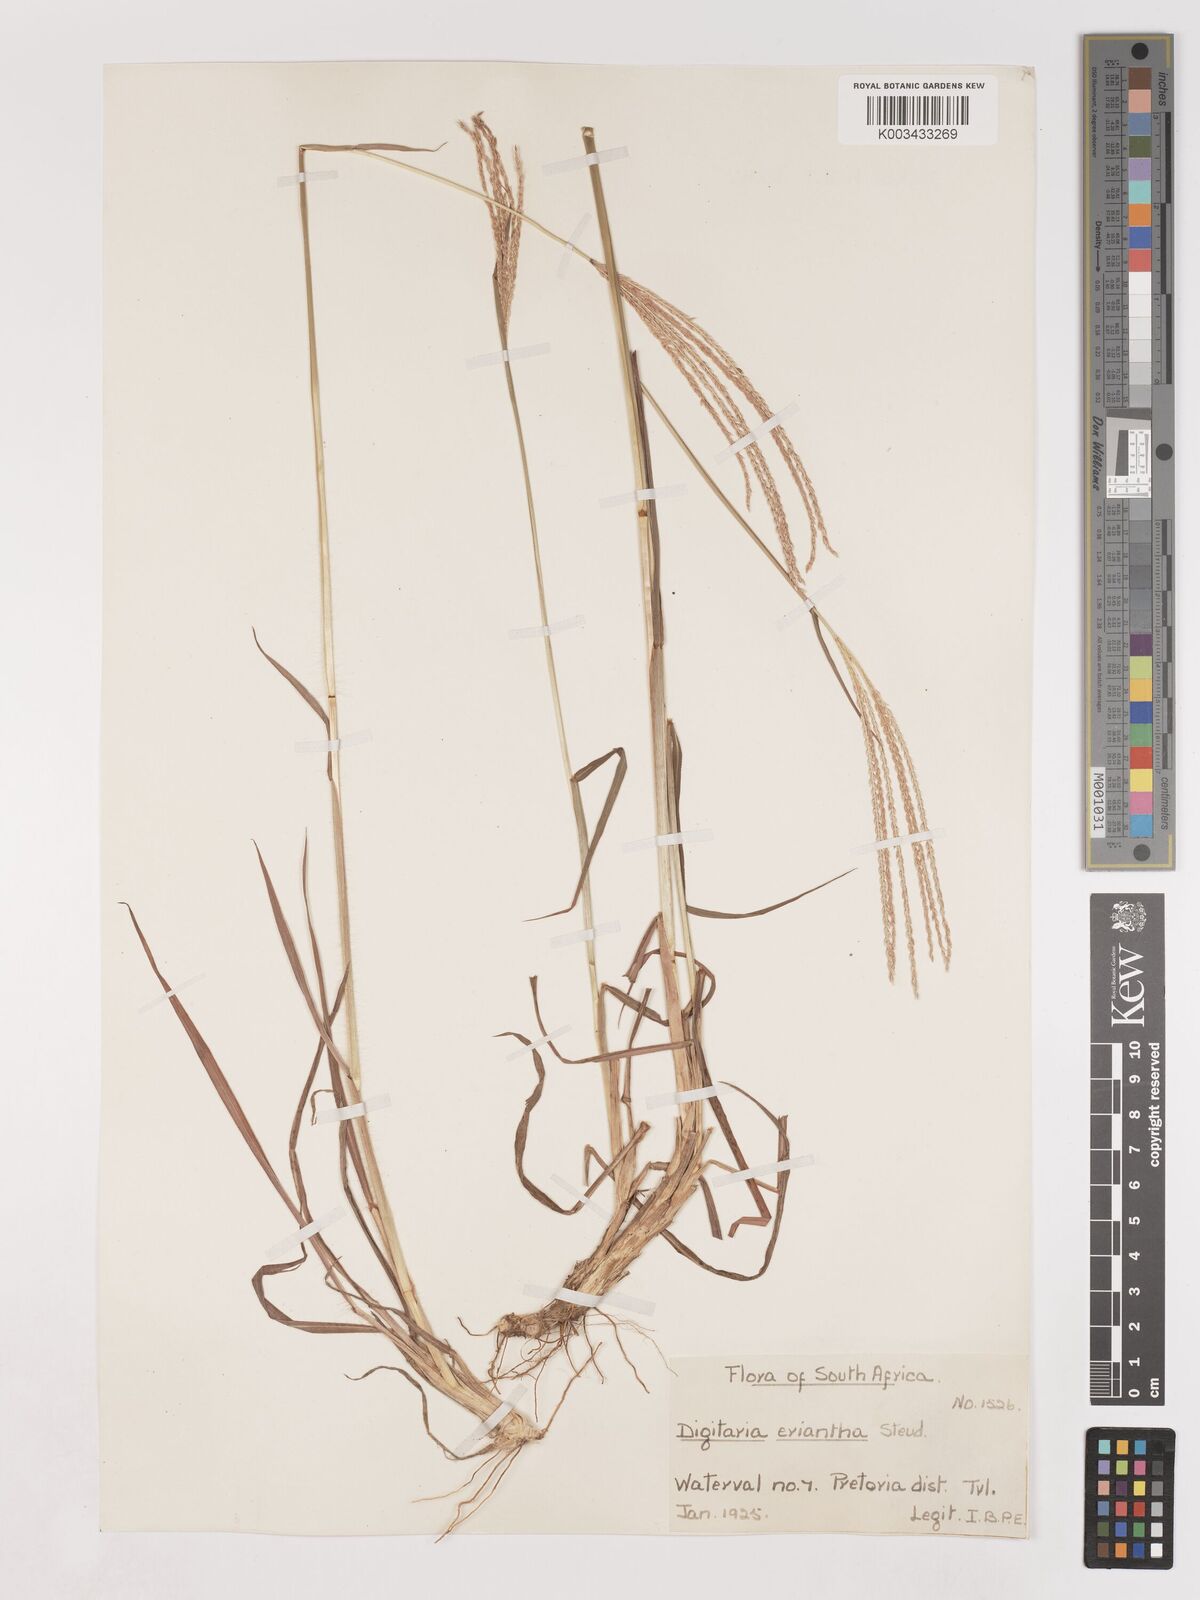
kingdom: Plantae
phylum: Tracheophyta
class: Liliopsida
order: Poales
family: Poaceae
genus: Digitaria
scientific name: Digitaria eriantha
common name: Digitgrass
